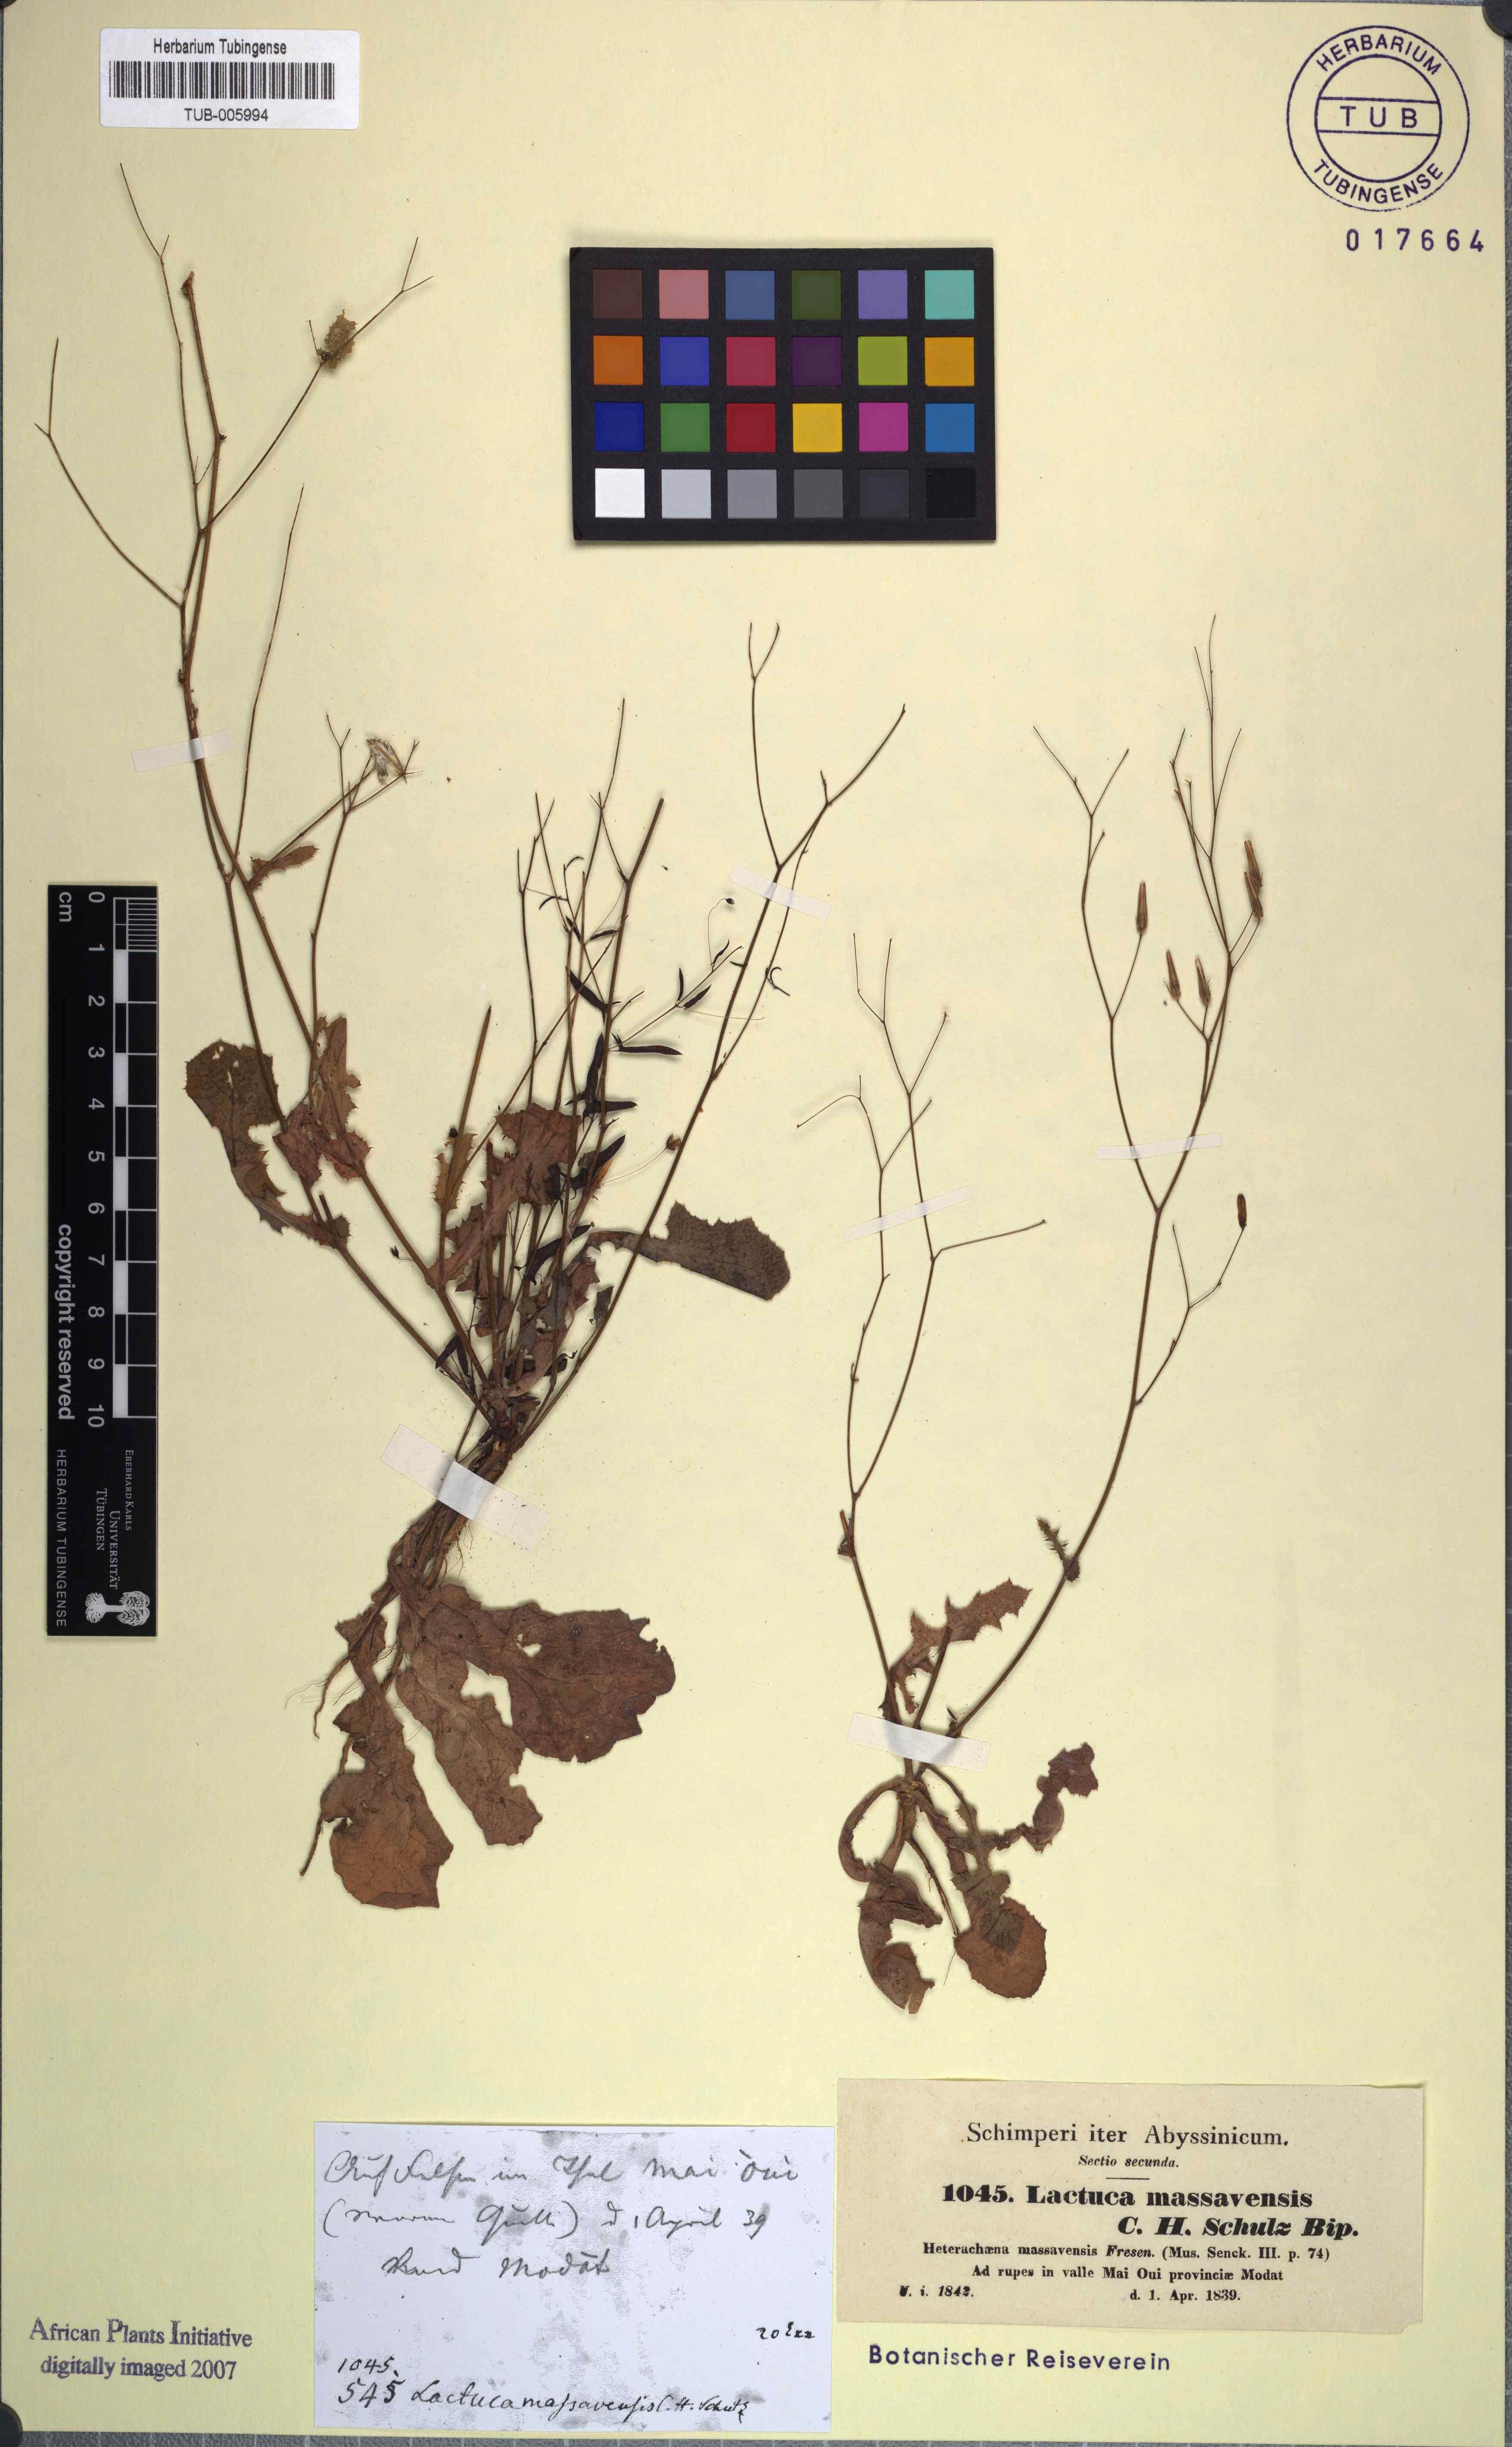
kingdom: Plantae
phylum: Tracheophyta
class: Magnoliopsida
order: Asterales
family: Asteraceae
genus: Lactuca
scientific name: Lactuca massaviensis
